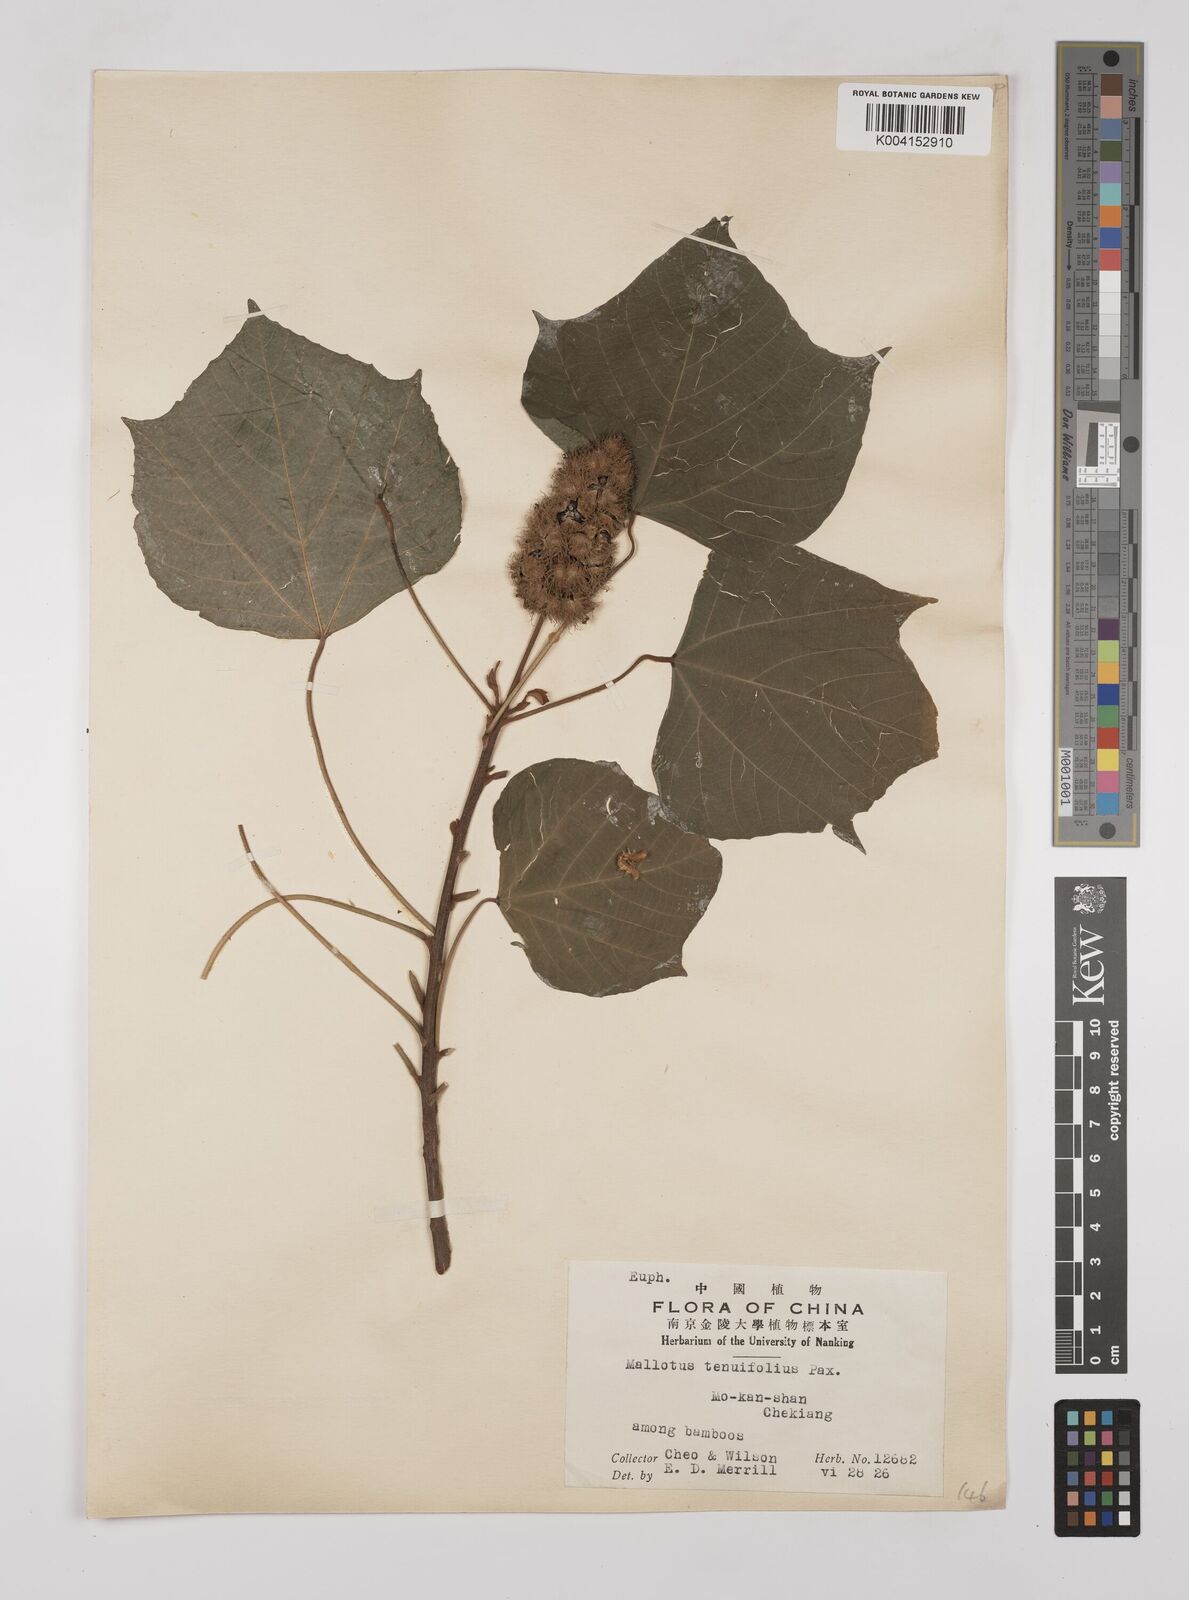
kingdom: Plantae
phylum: Tracheophyta
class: Magnoliopsida
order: Malpighiales
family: Euphorbiaceae
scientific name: Euphorbiaceae
